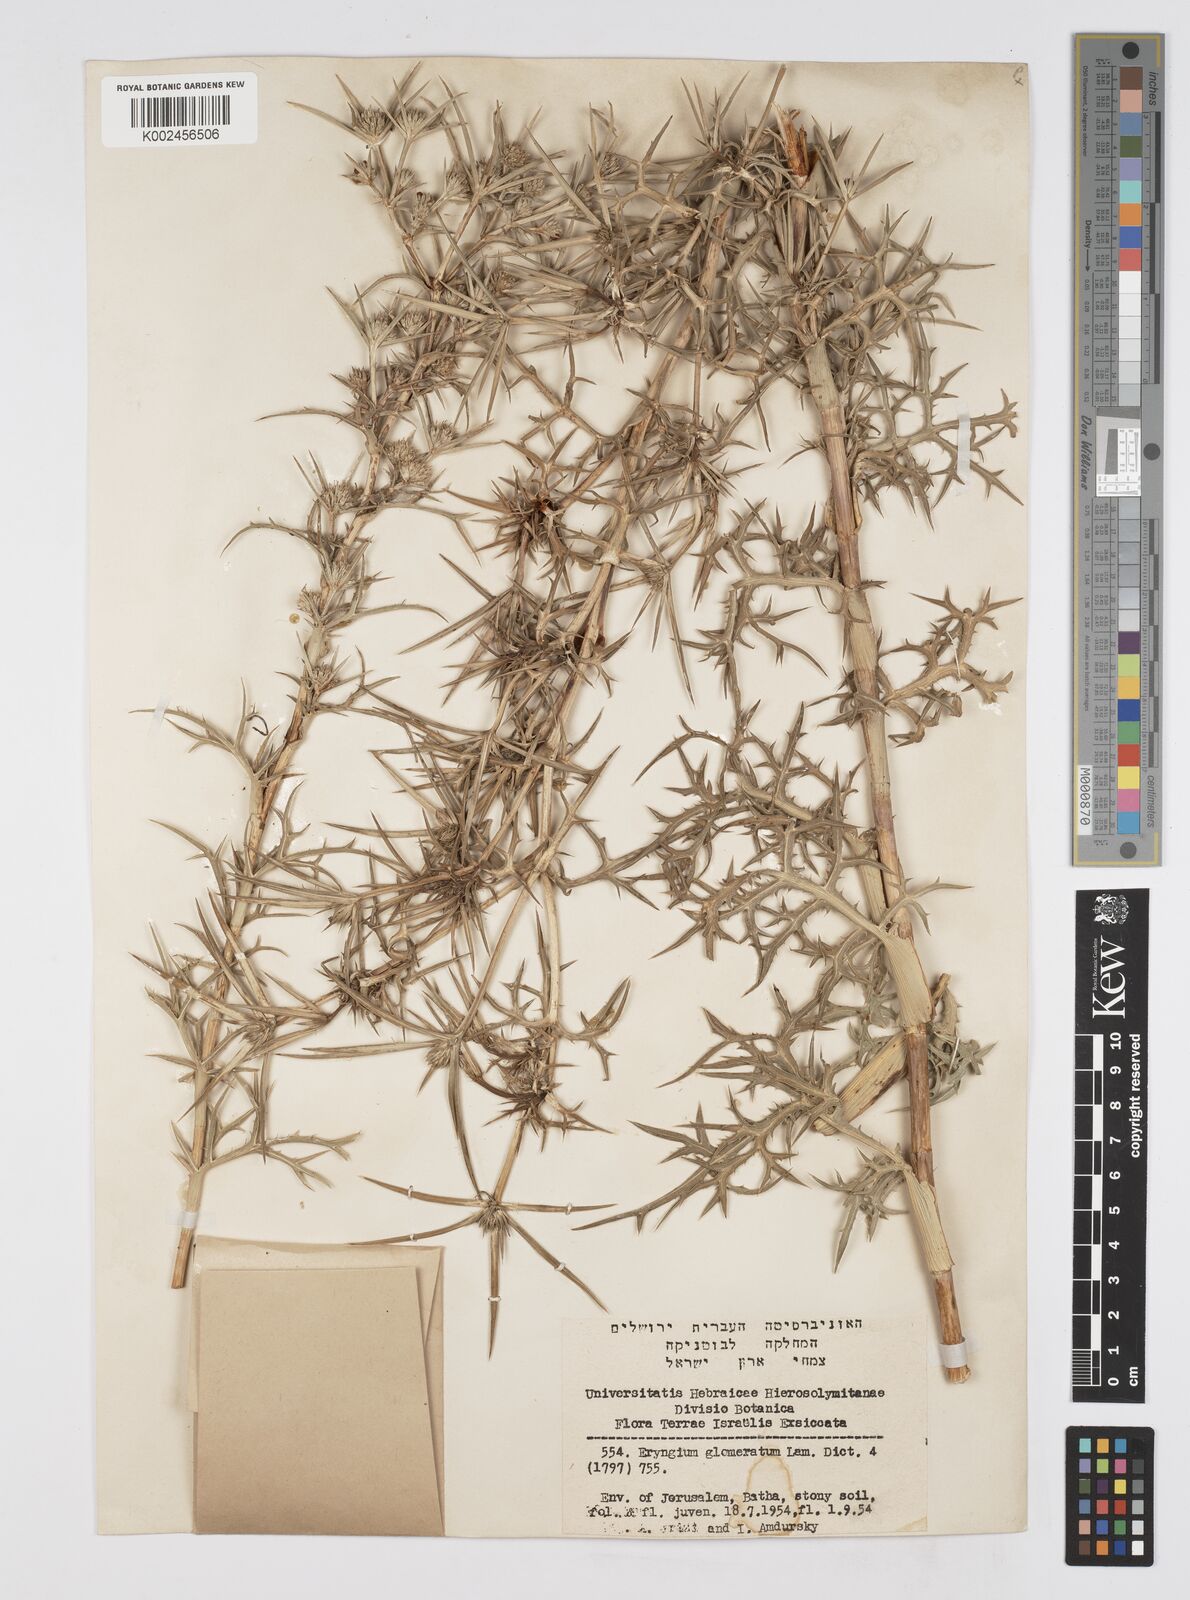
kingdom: Plantae
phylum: Tracheophyta
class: Magnoliopsida
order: Apiales
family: Apiaceae
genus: Eryngium
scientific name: Eryngium glomeratum
